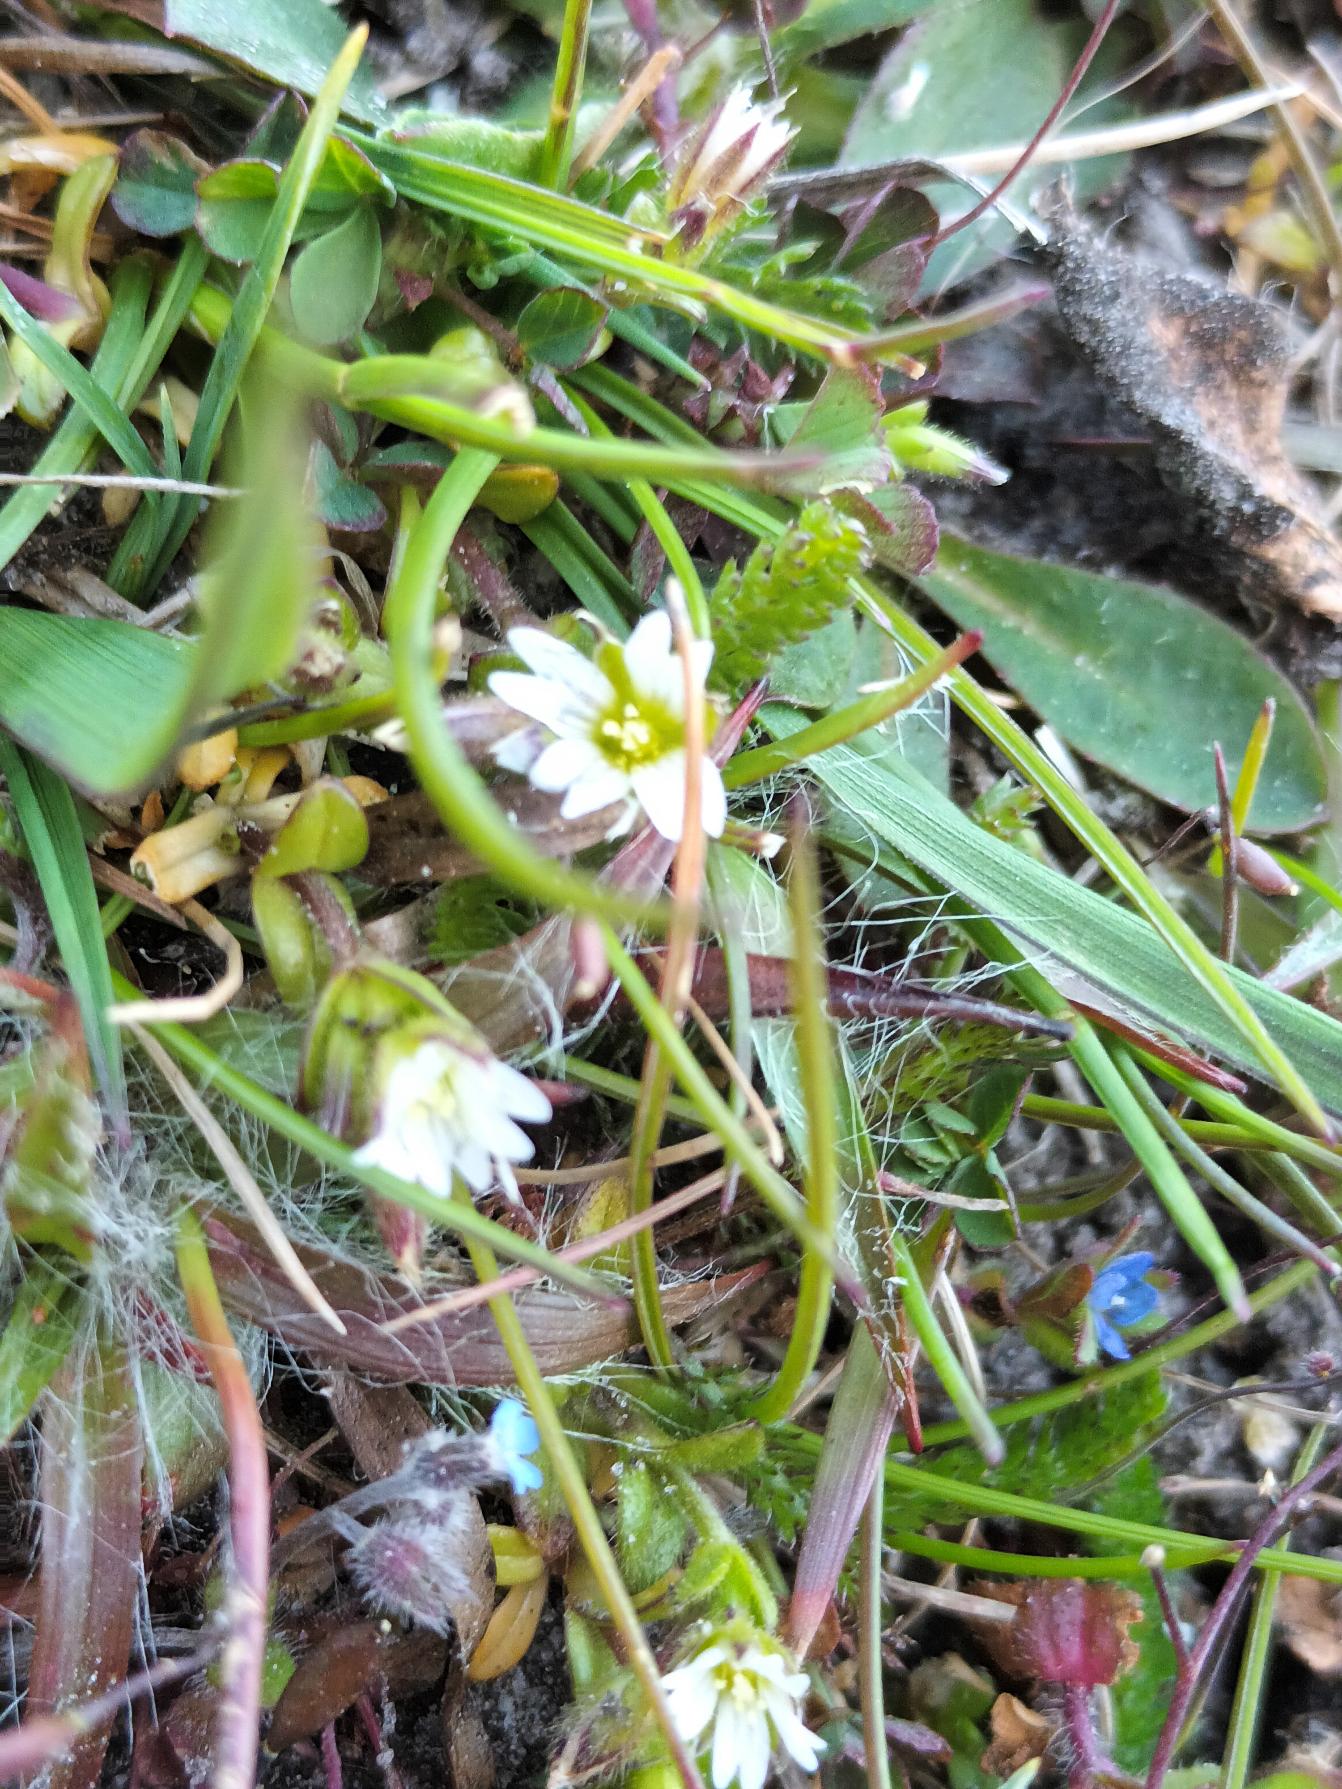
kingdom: Plantae
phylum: Tracheophyta
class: Magnoliopsida
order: Caryophyllales
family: Caryophyllaceae
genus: Cerastium
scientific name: Cerastium subtetrandrum
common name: Øresunds-hønsetarm
